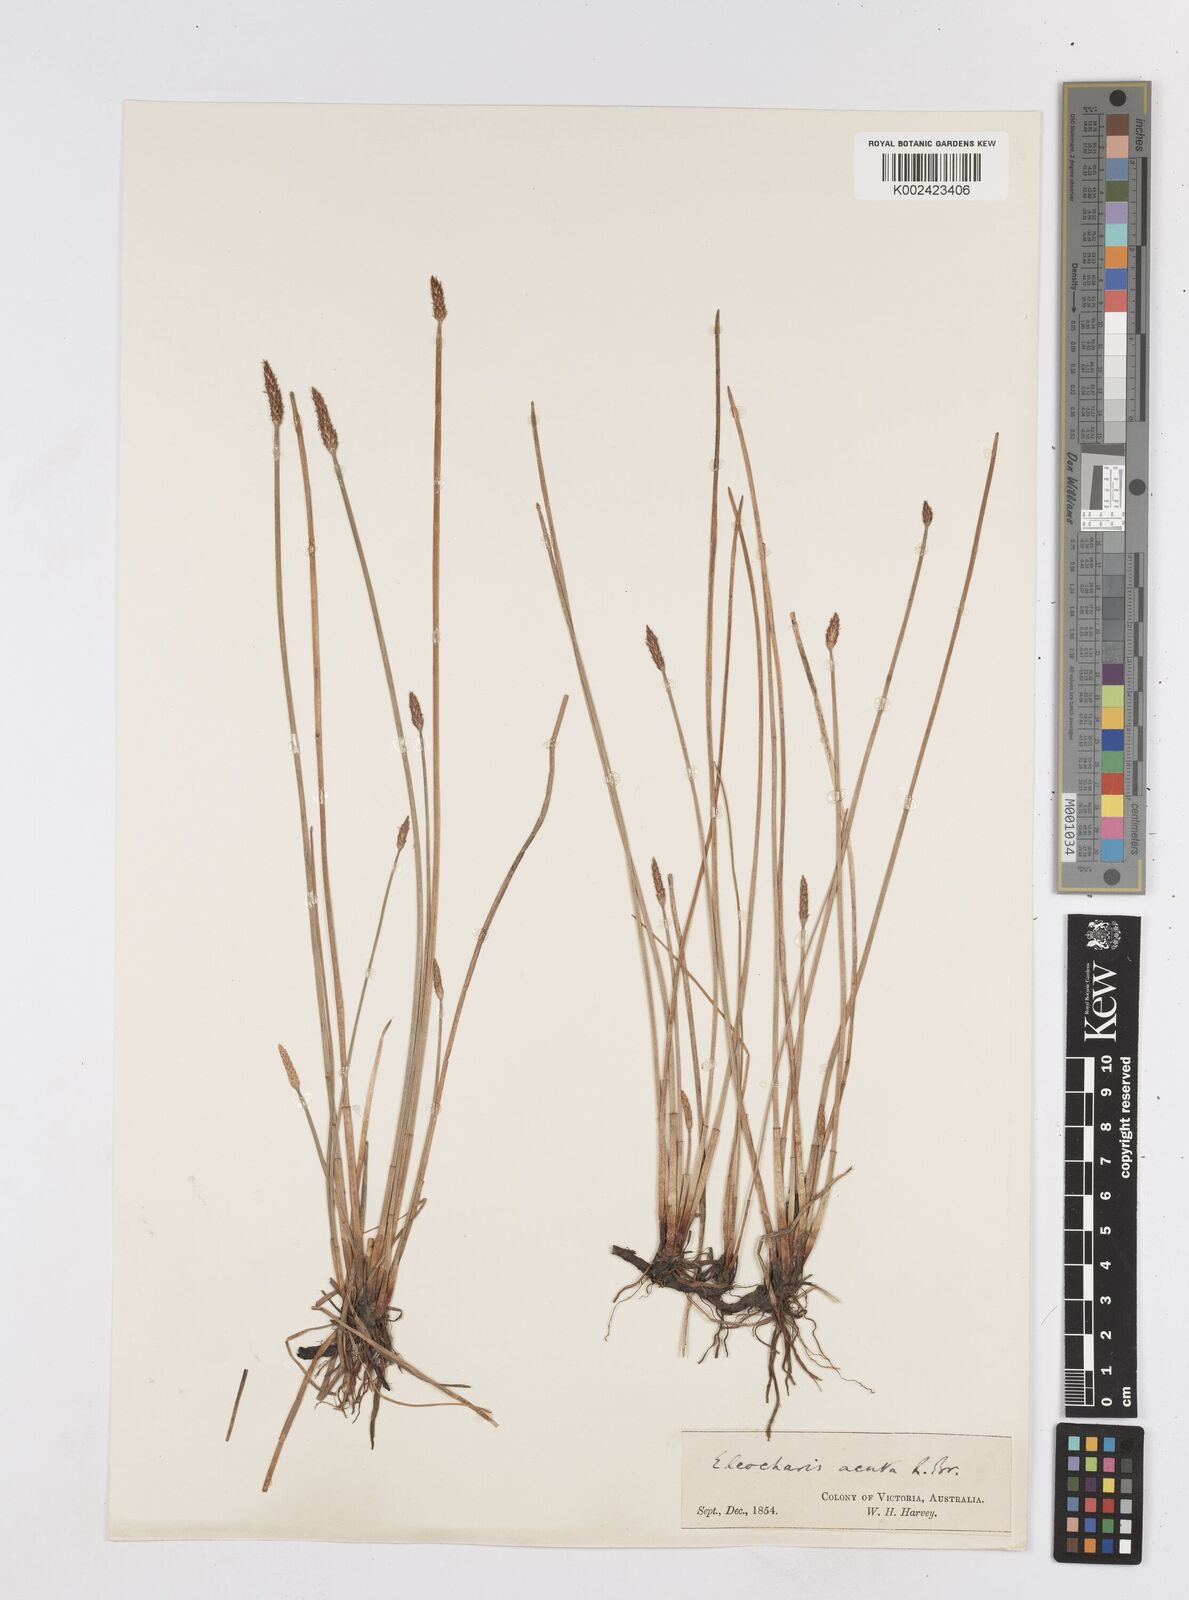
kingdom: Plantae
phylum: Tracheophyta
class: Liliopsida
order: Poales
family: Cyperaceae
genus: Eleocharis
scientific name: Eleocharis acuta
